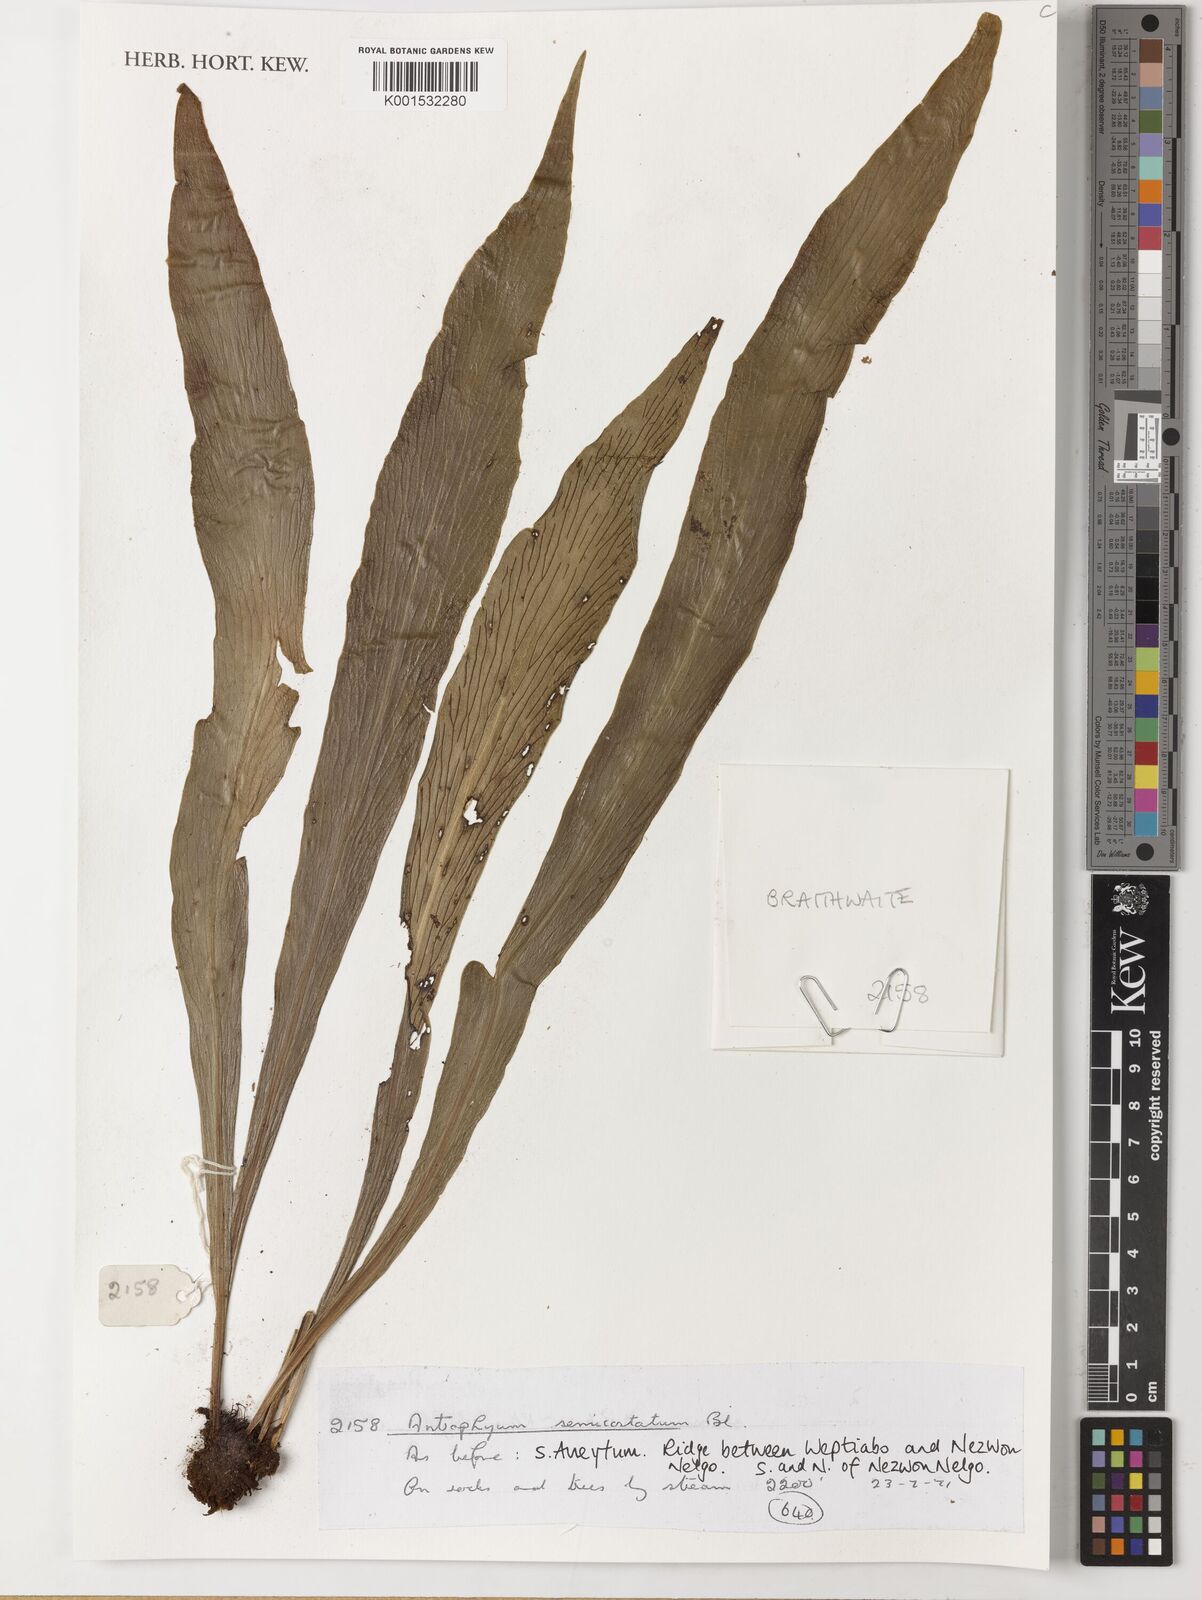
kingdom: Plantae
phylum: Tracheophyta
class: Polypodiopsida
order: Polypodiales
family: Pteridaceae
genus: Antrophyum
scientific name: Antrophyum semicostatum
